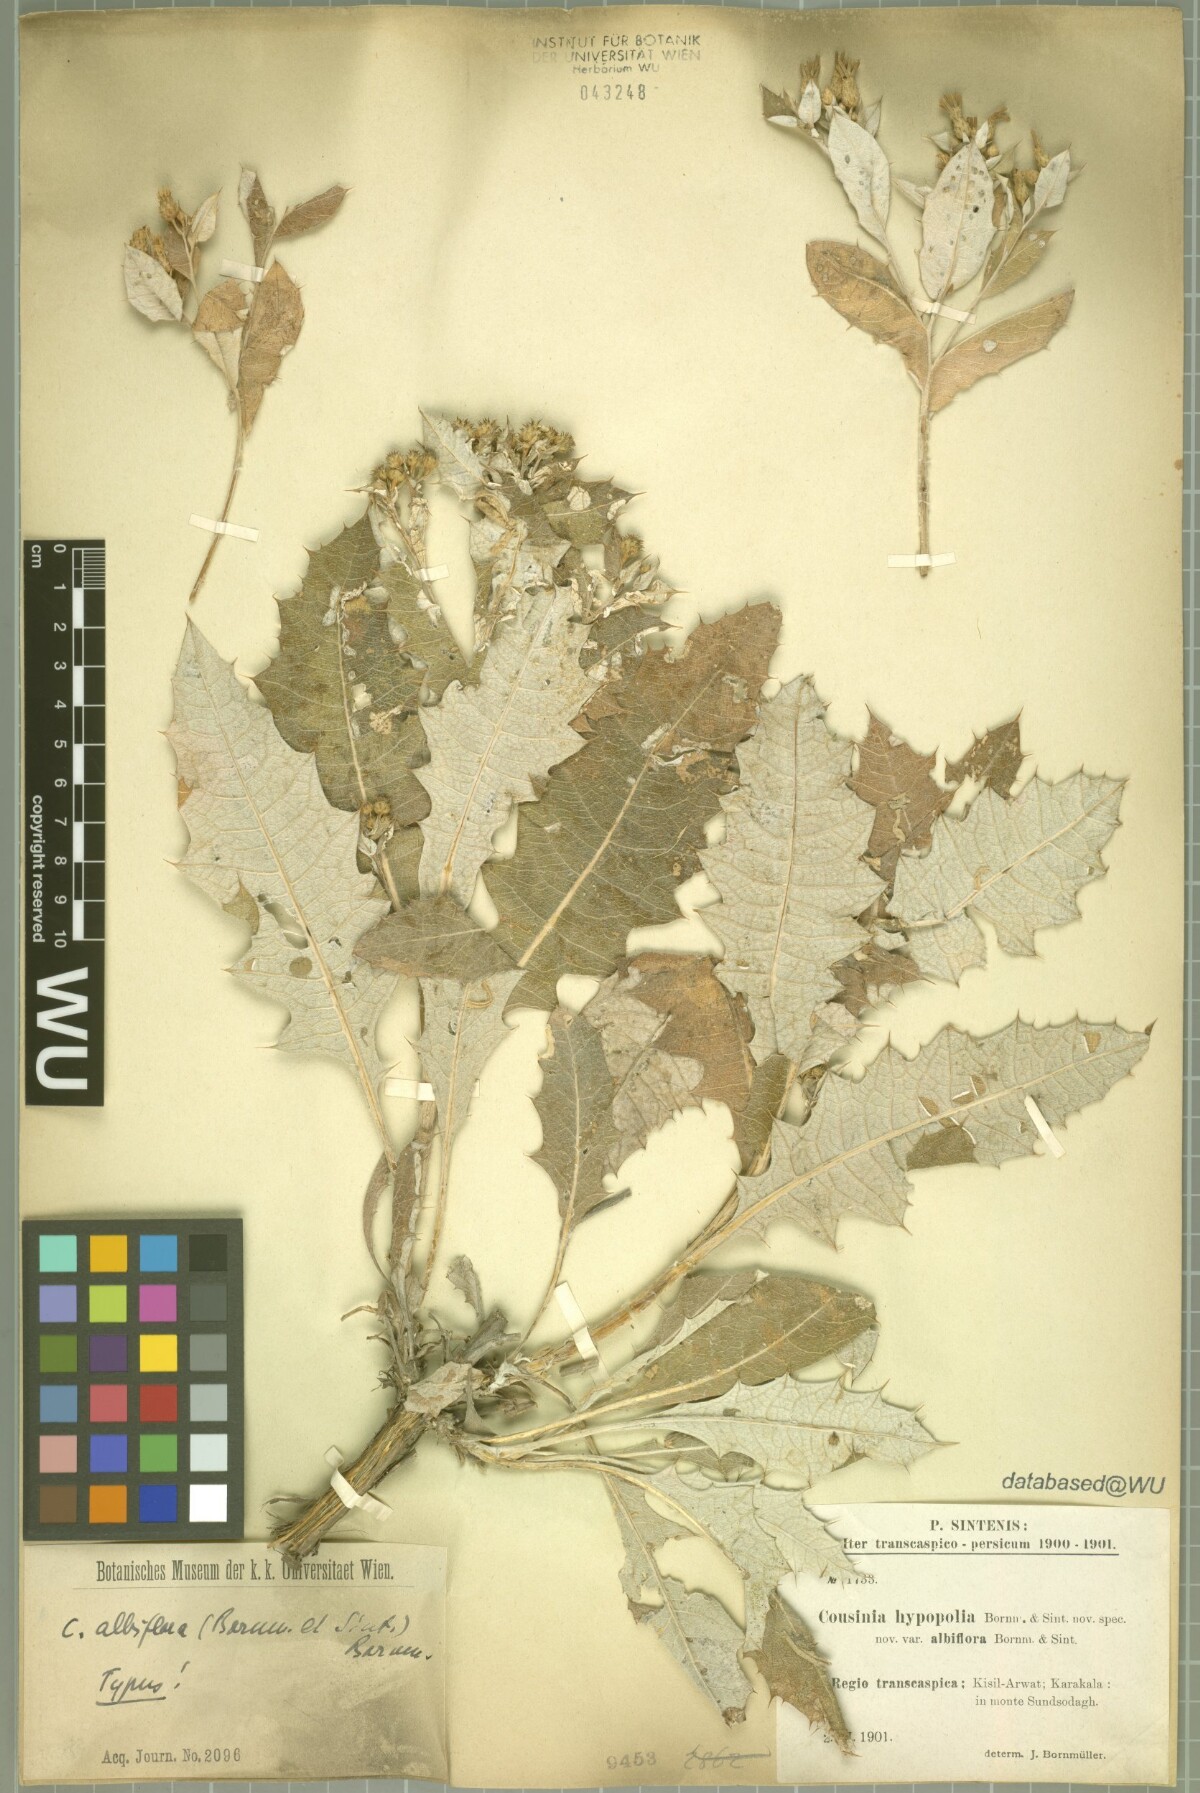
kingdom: Plantae
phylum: Tracheophyta
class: Magnoliopsida
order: Asterales
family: Asteraceae
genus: Cousinia
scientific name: Cousinia albiflora
